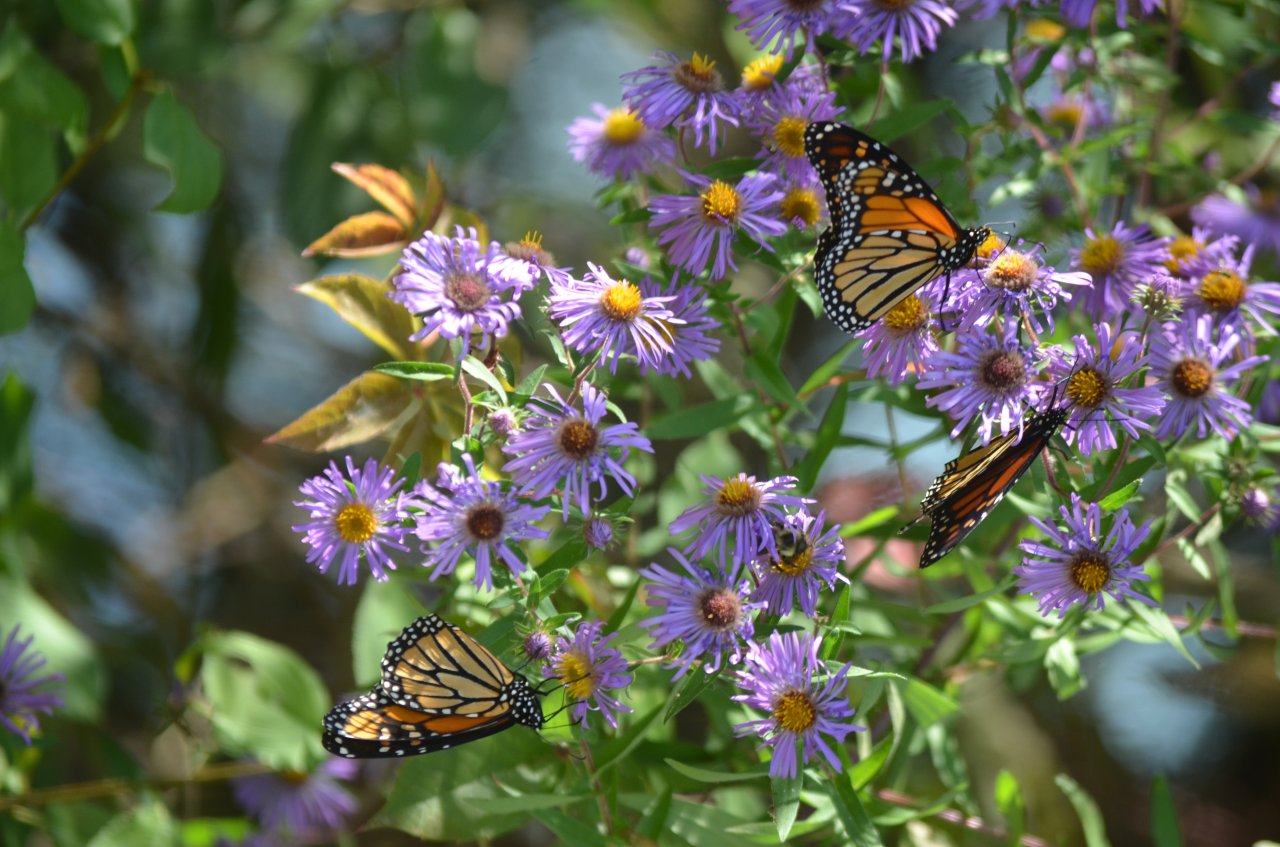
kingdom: Animalia
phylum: Arthropoda
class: Insecta
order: Lepidoptera
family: Nymphalidae
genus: Danaus
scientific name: Danaus plexippus
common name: Monarch
